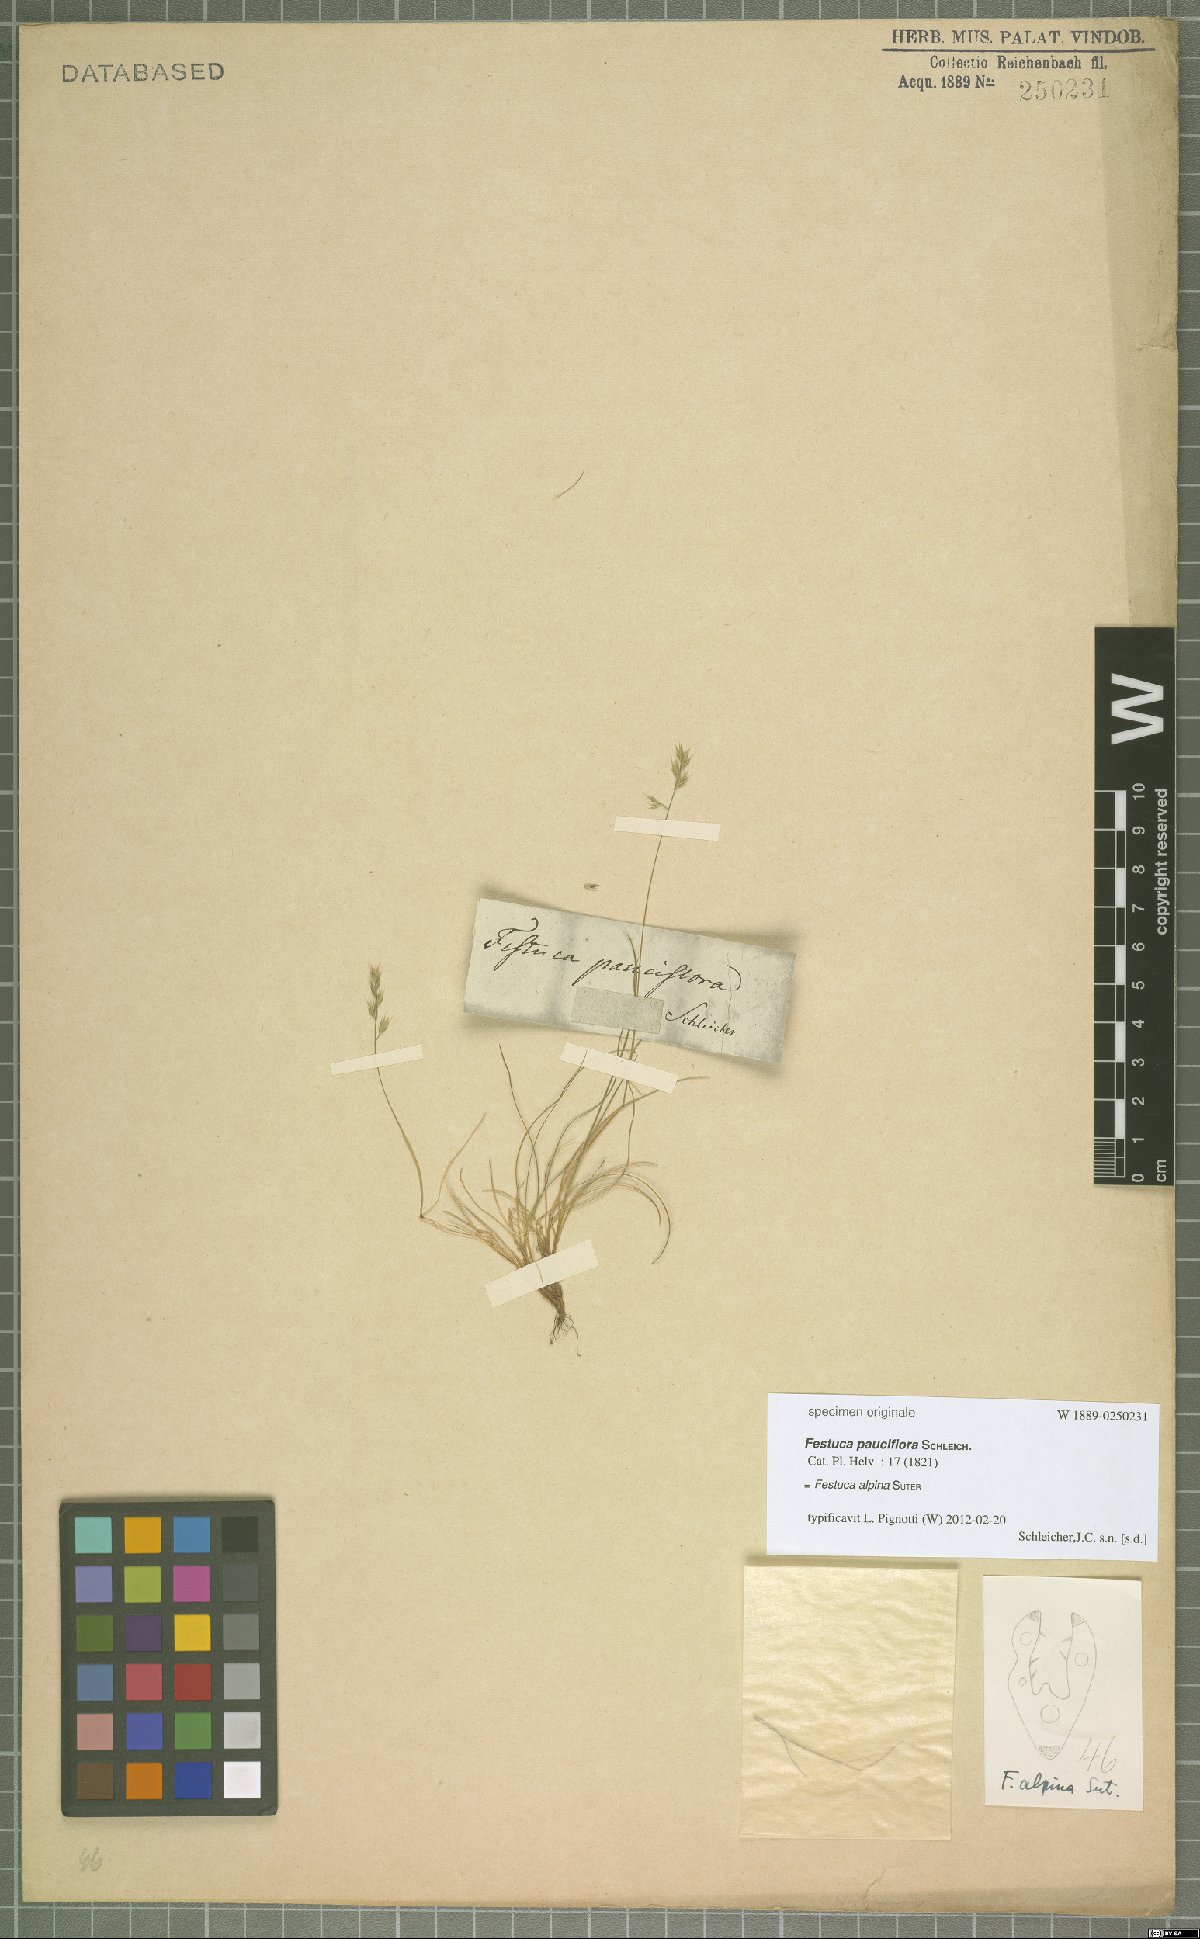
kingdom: Plantae
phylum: Tracheophyta
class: Liliopsida
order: Poales
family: Poaceae
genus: Festuca
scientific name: Festuca alpina
